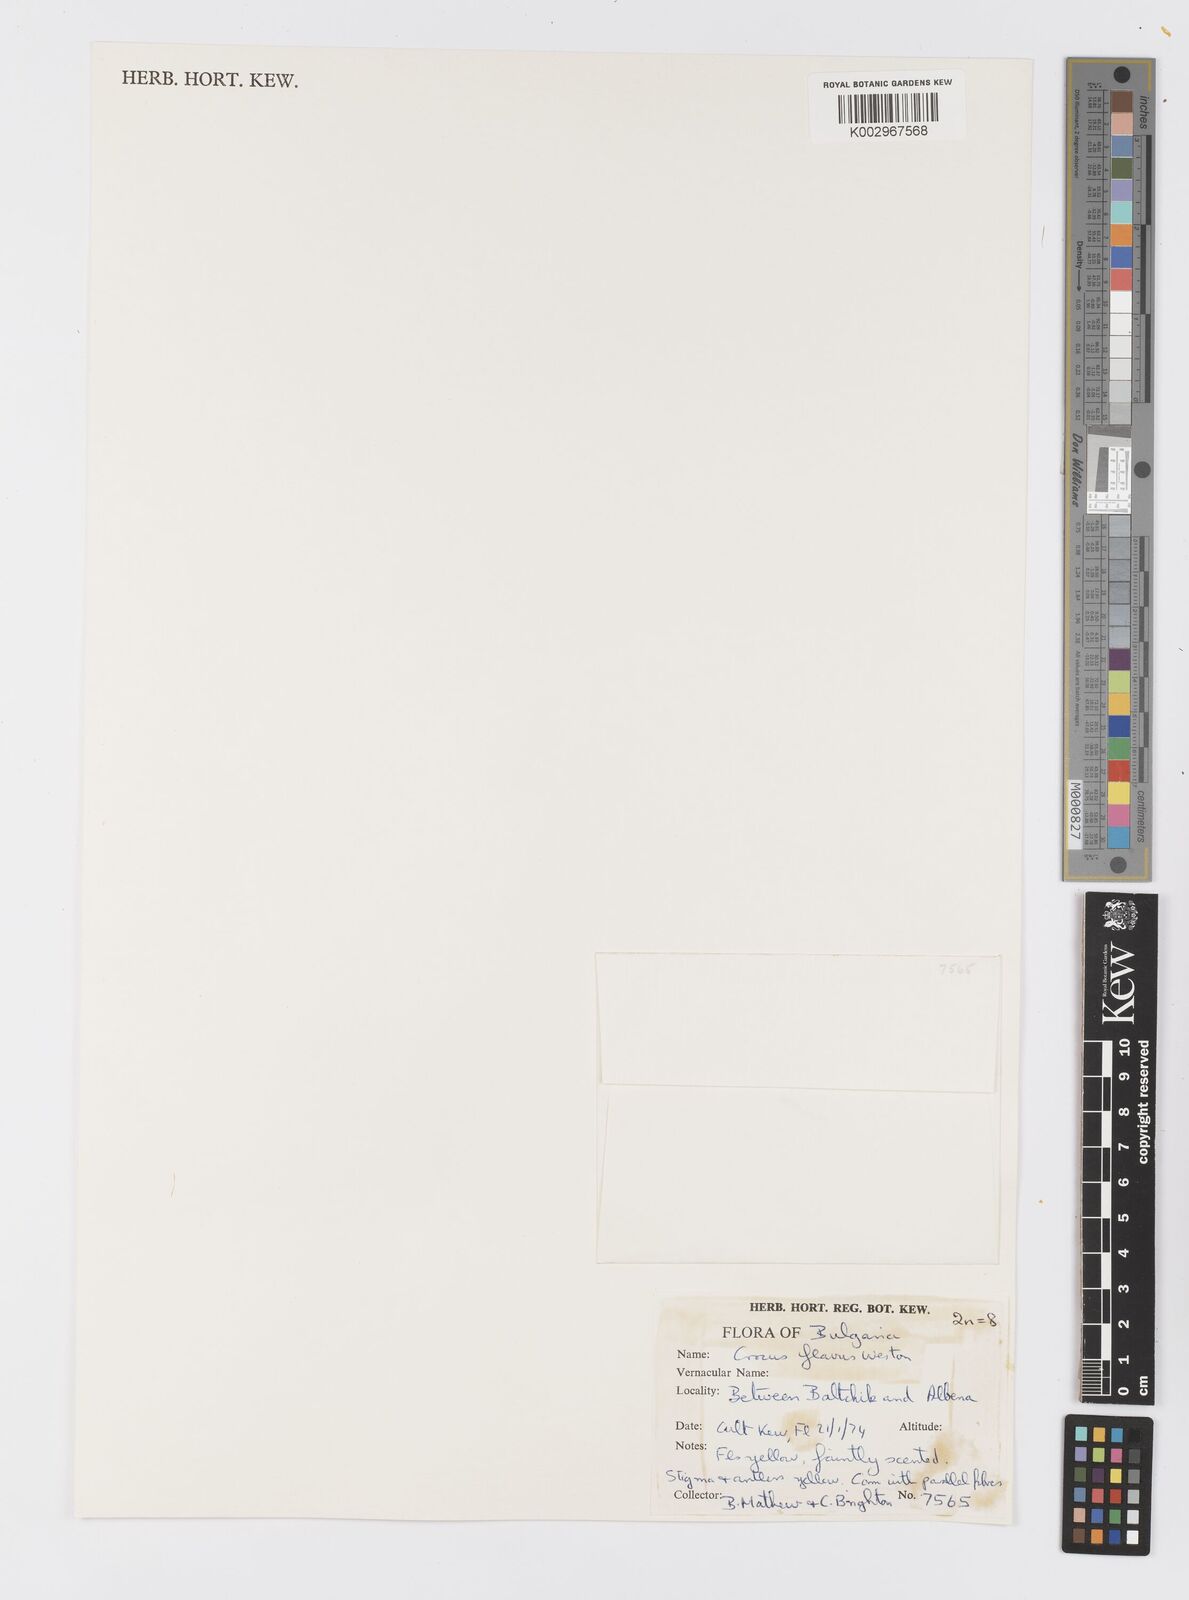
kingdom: Plantae
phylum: Tracheophyta
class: Liliopsida
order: Asparagales
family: Iridaceae
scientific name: Iridaceae
